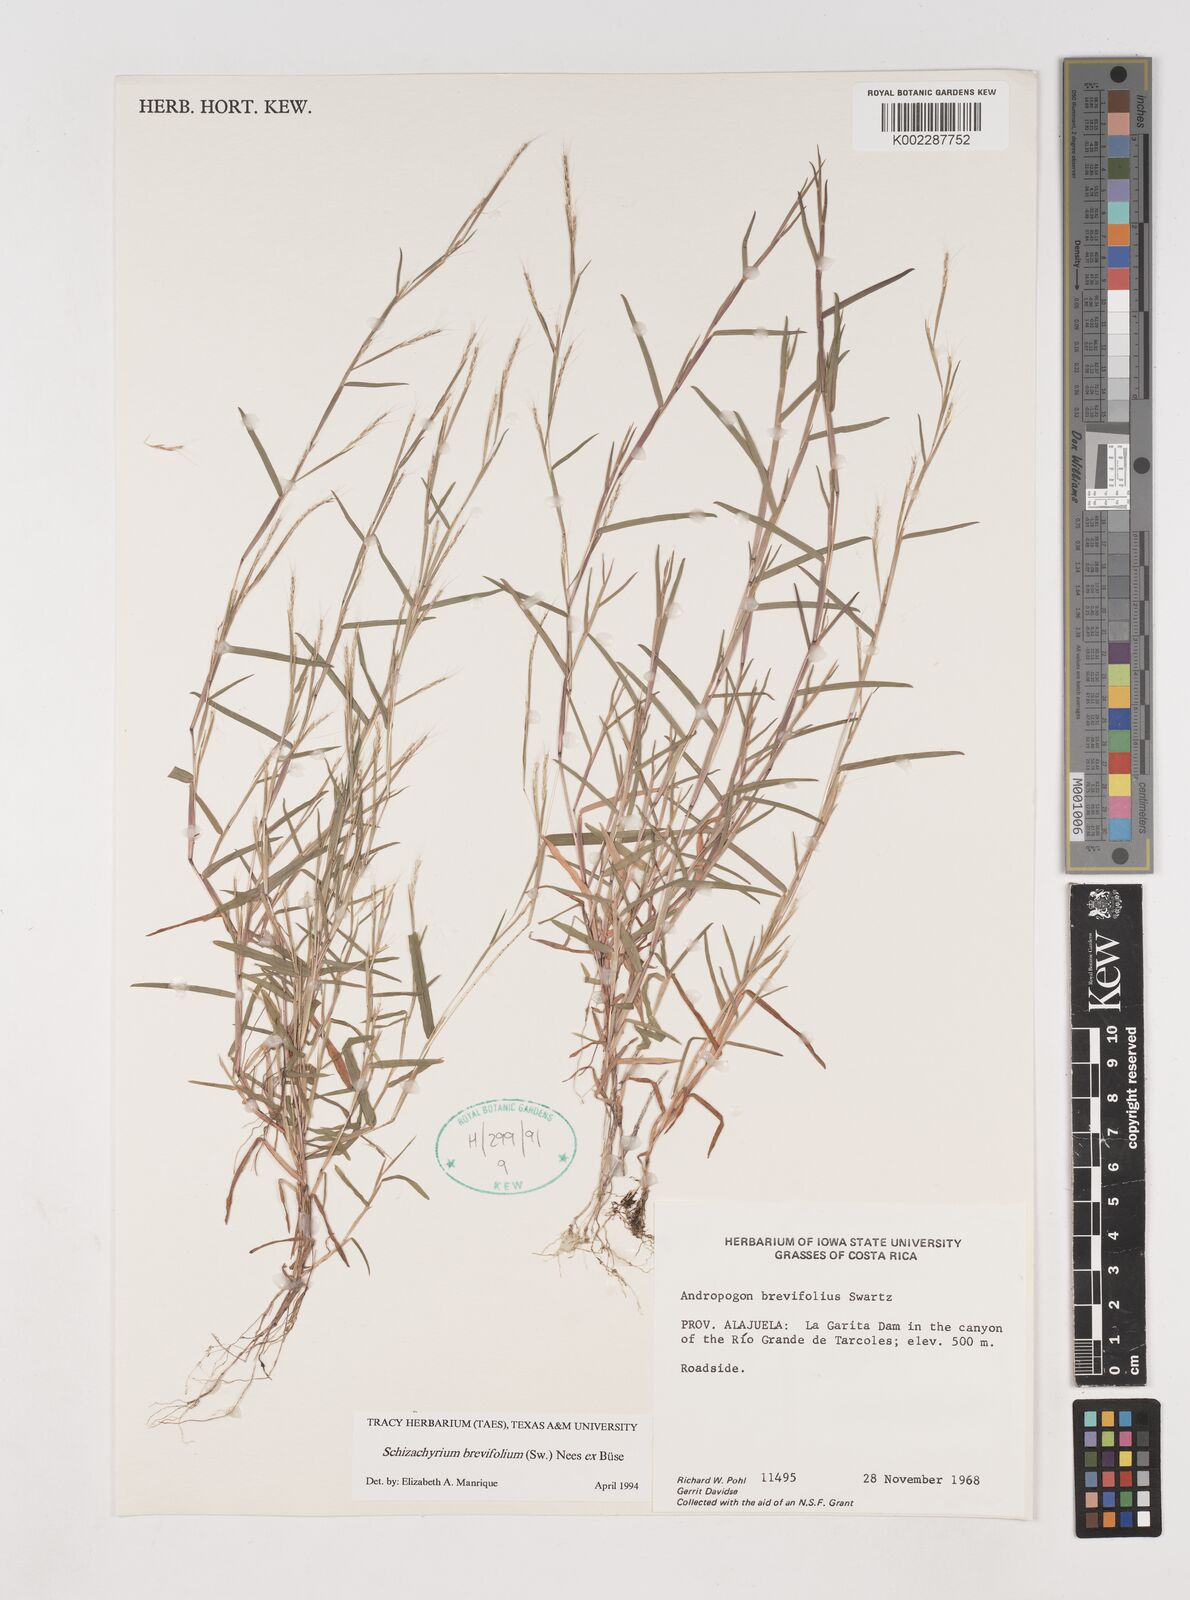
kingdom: Plantae
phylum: Tracheophyta
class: Liliopsida
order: Poales
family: Poaceae
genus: Schizachyrium
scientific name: Schizachyrium brevifolium
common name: Serillo dulce
